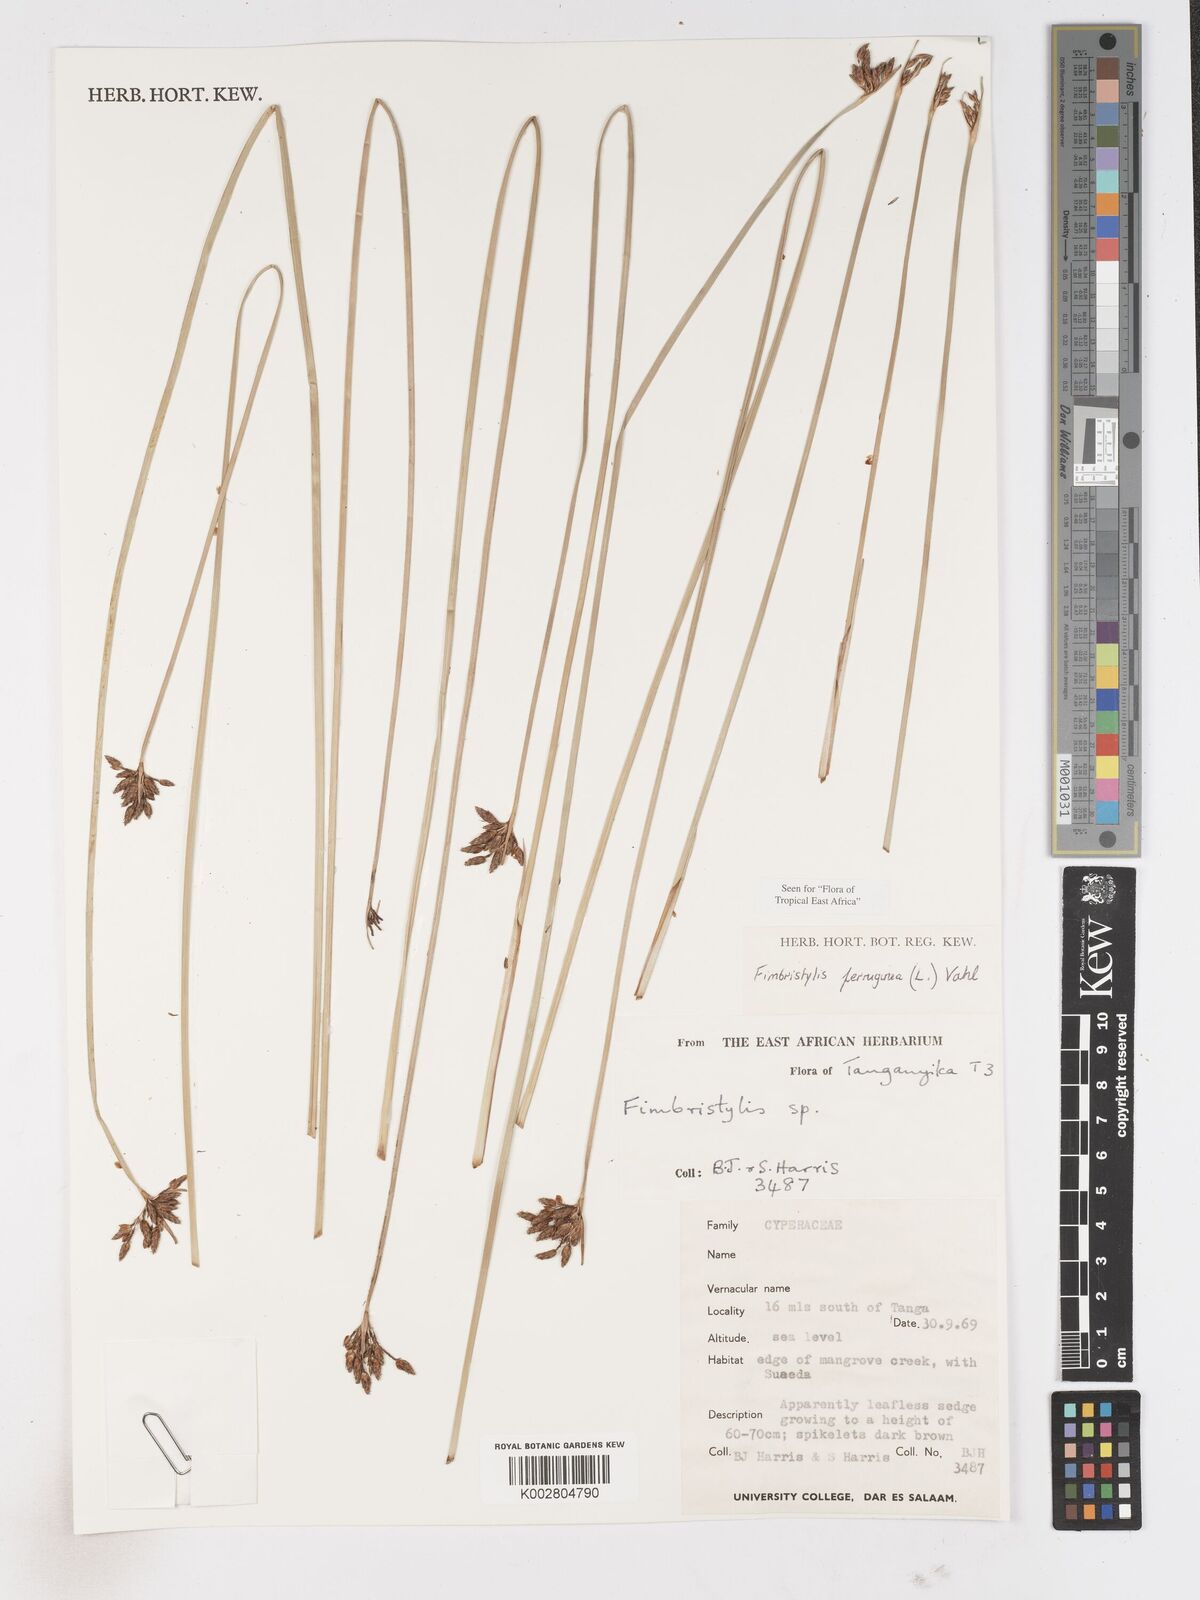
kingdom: Plantae
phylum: Tracheophyta
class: Liliopsida
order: Poales
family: Cyperaceae
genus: Fimbristylis
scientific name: Fimbristylis ferruginea
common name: West indian fimbry
